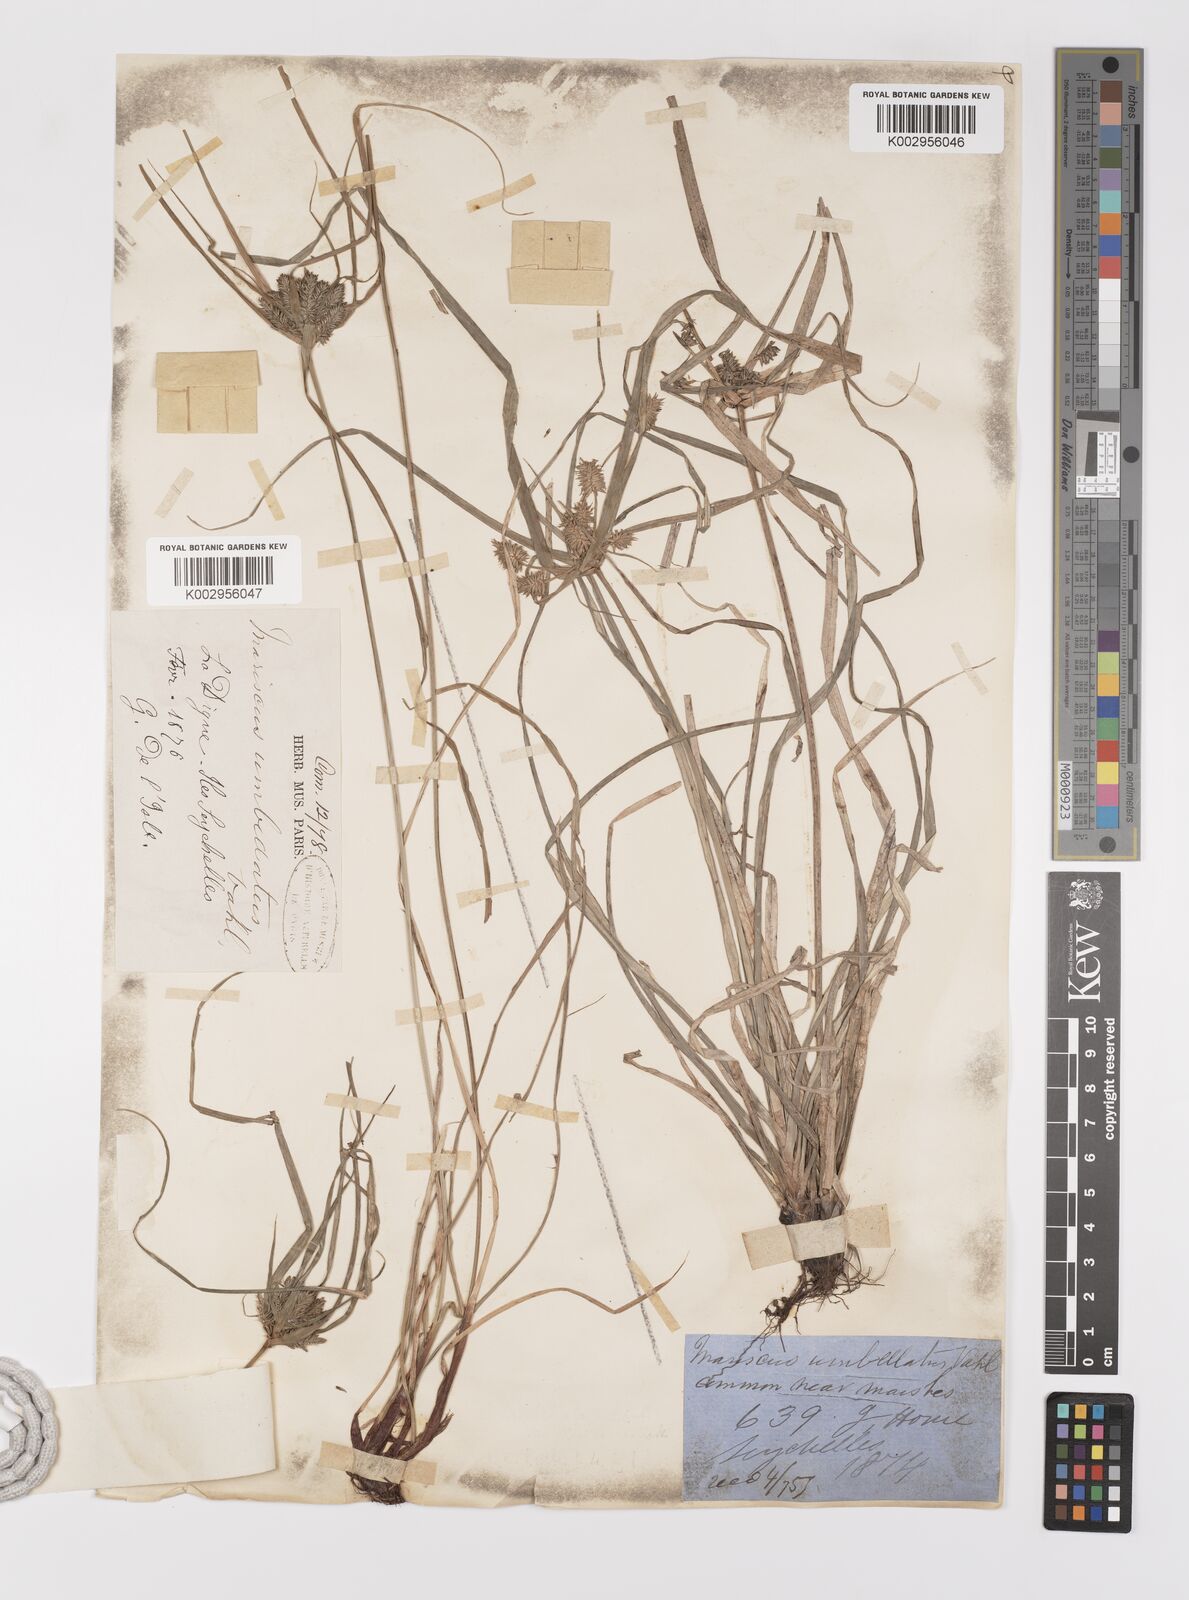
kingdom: Plantae
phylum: Tracheophyta
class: Liliopsida
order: Poales
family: Cyperaceae
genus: Cyperus
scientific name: Cyperus paniceus
